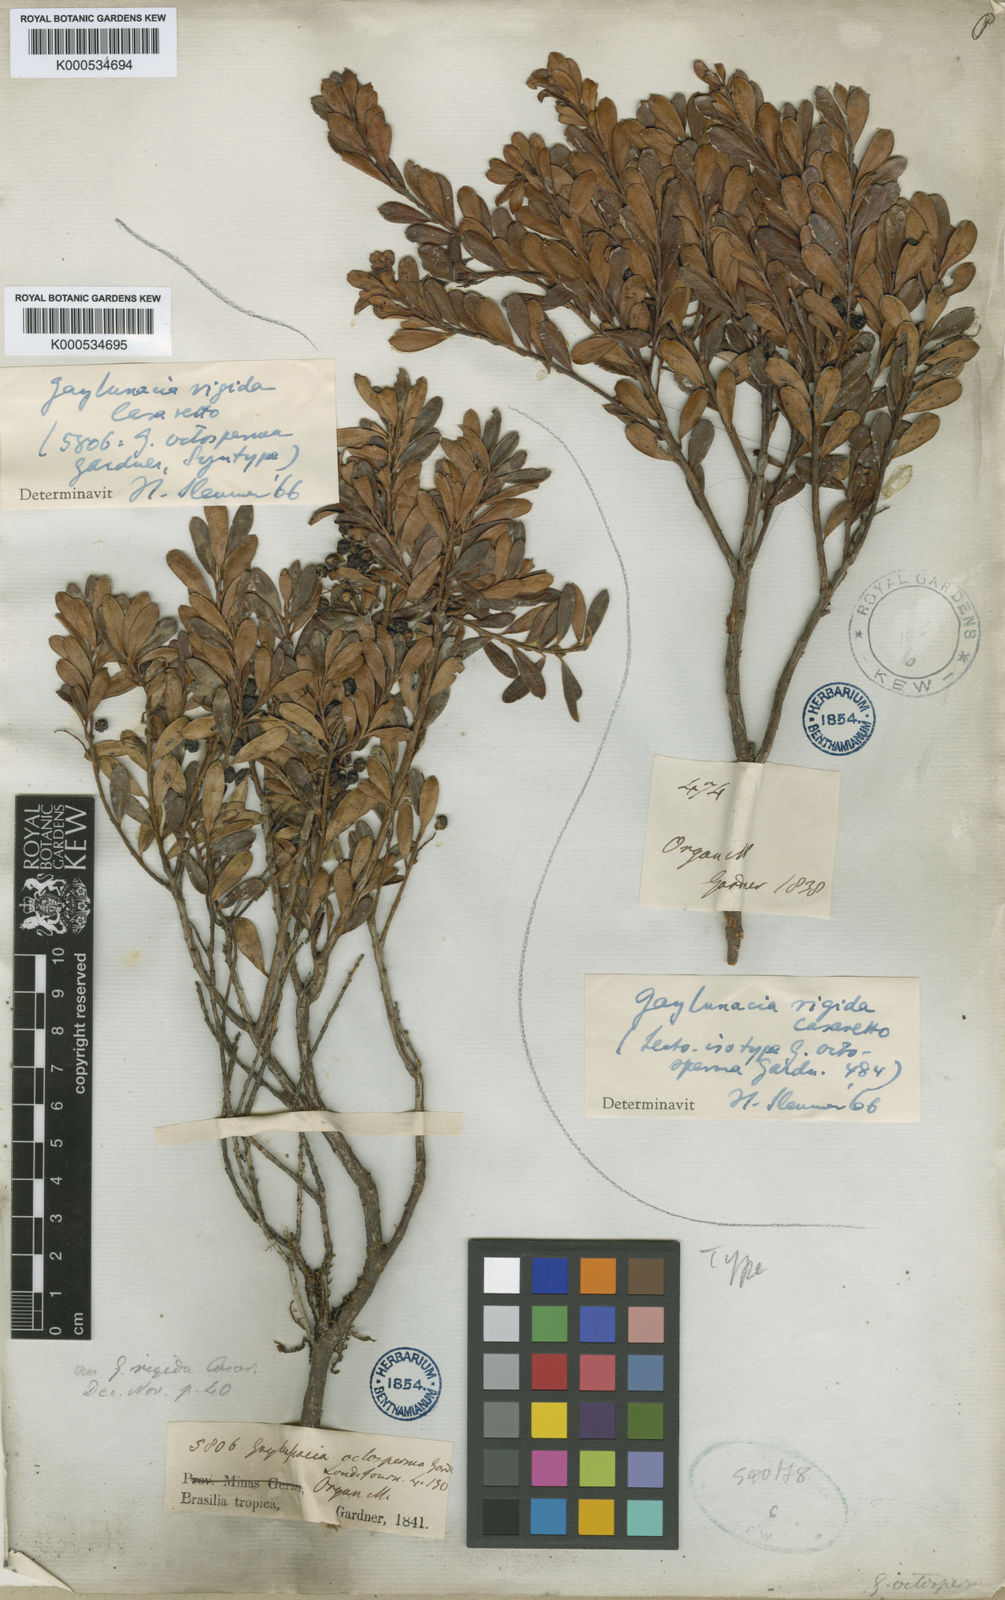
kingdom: Plantae
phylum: Tracheophyta
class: Magnoliopsida
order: Ericales
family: Ericaceae
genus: Gaylussacia
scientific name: Gaylussacia rigida
